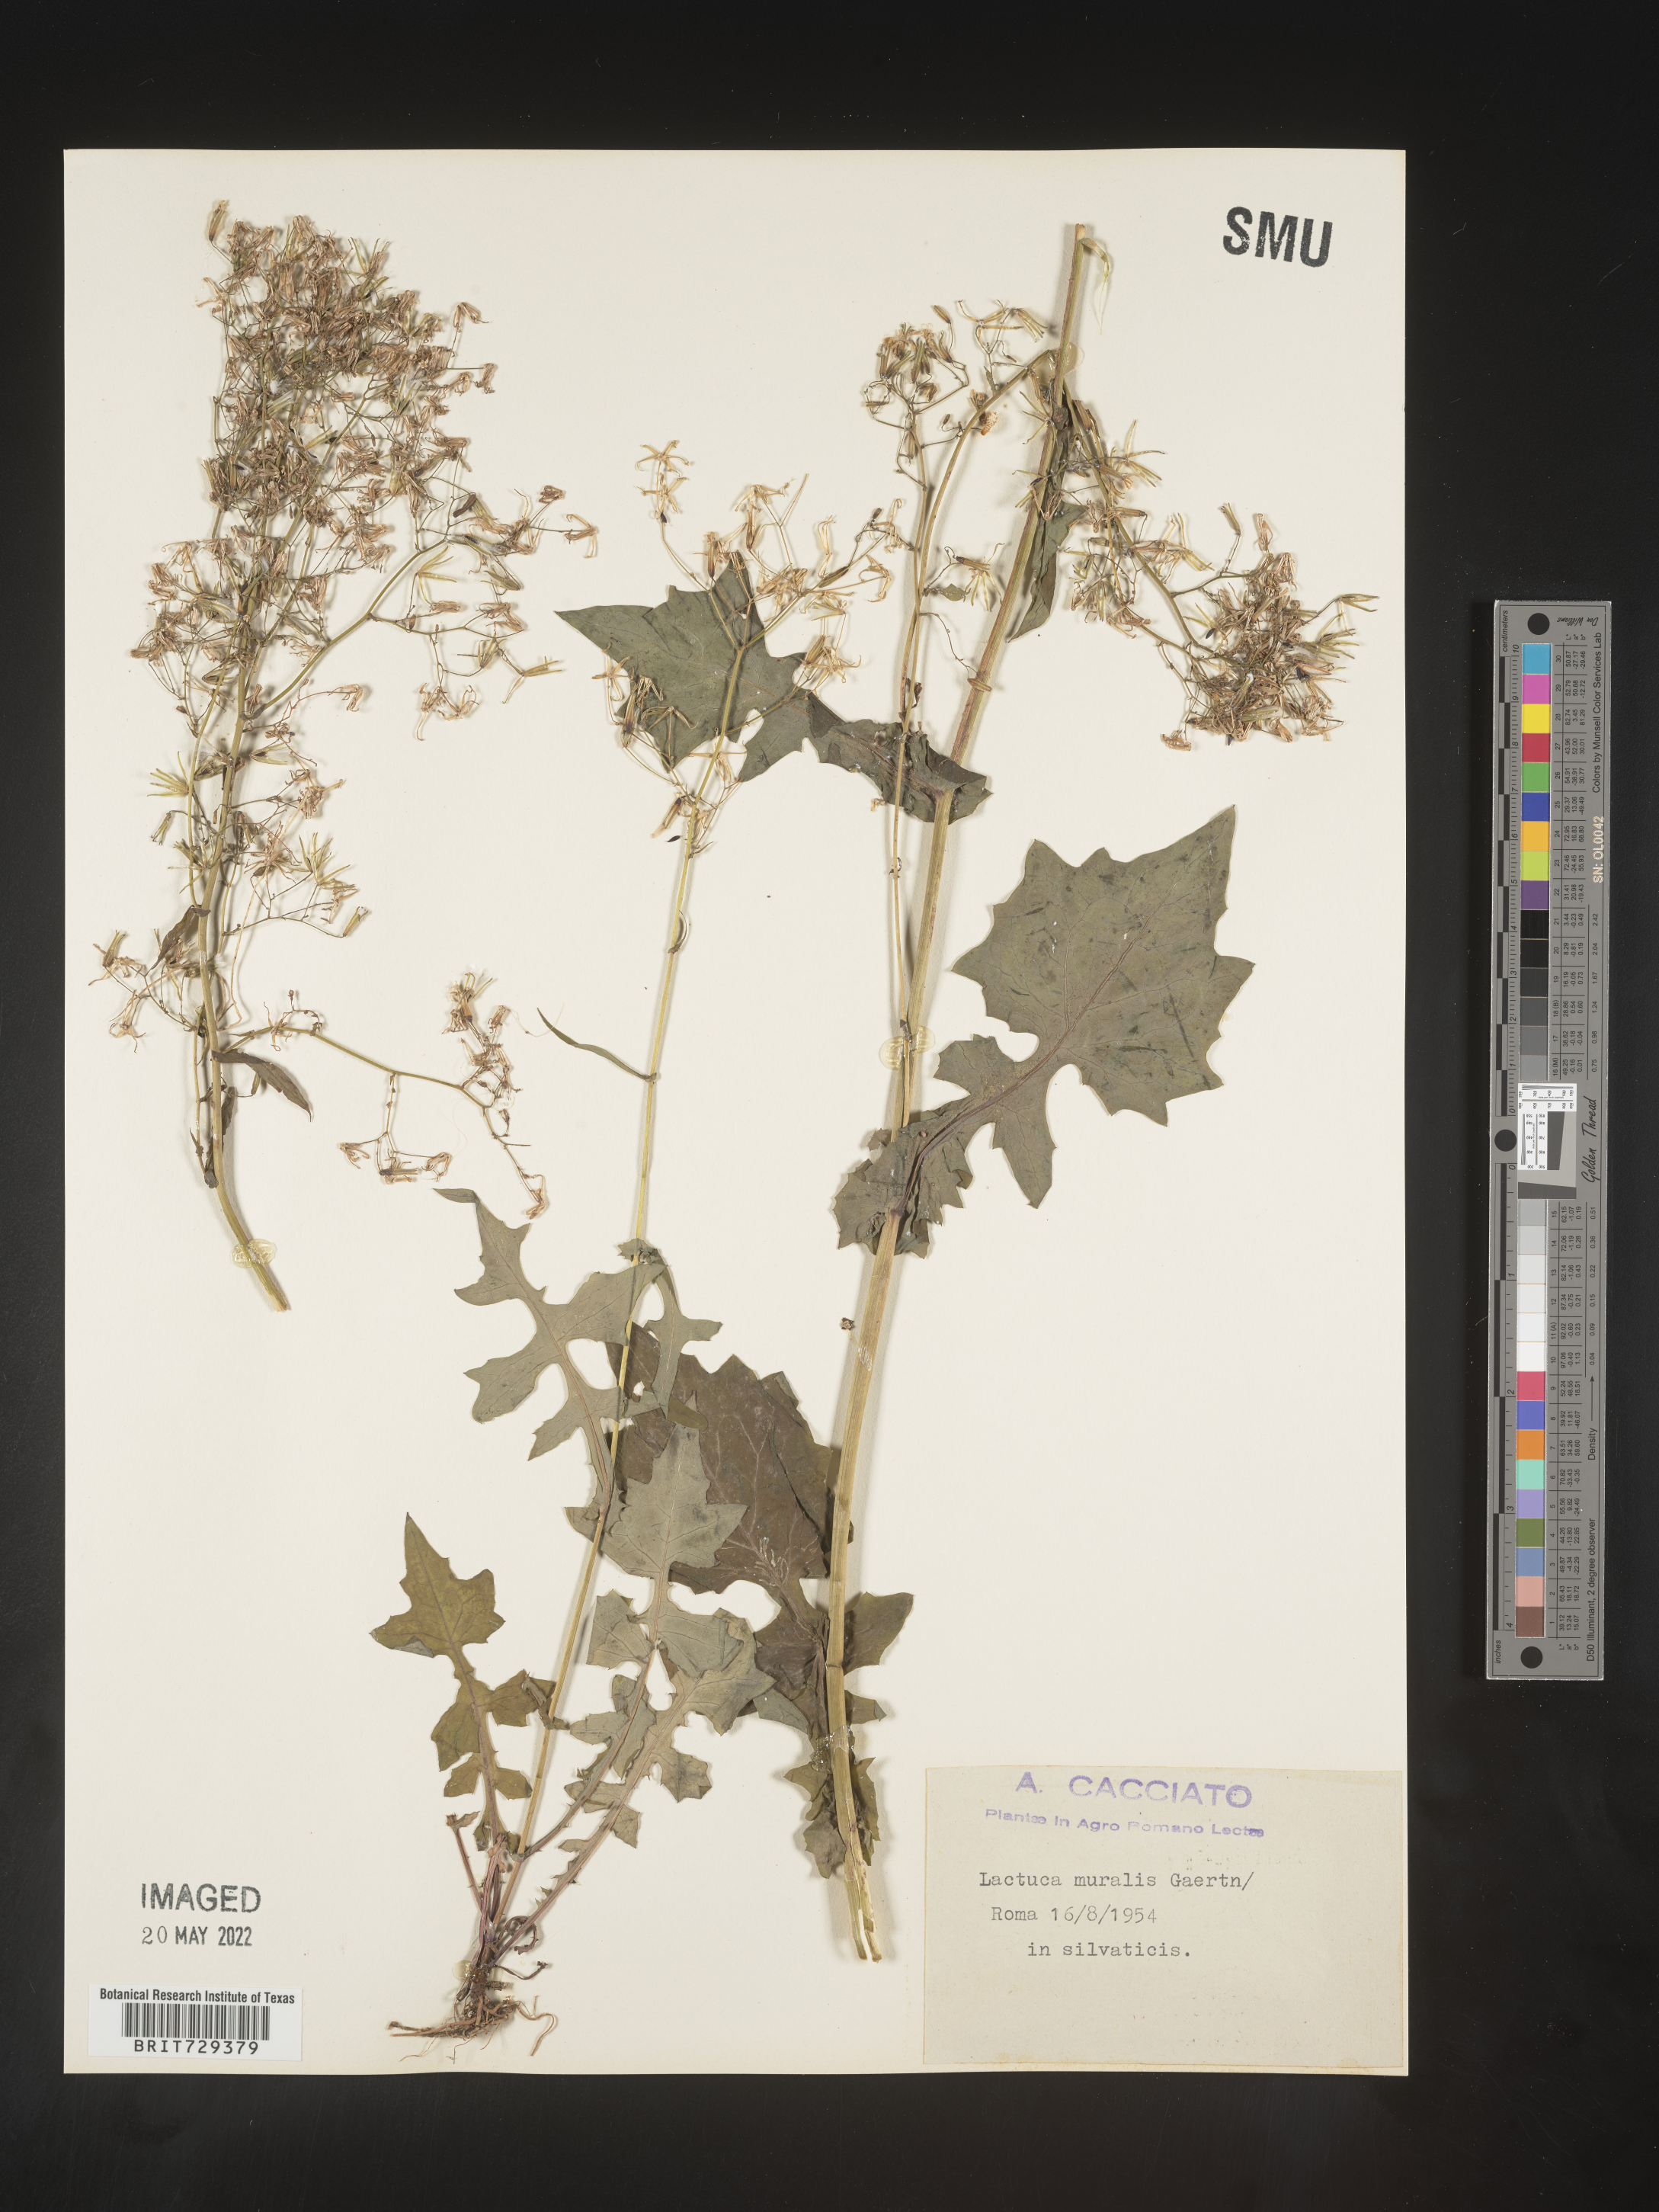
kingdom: Plantae
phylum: Tracheophyta
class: Magnoliopsida
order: Asterales
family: Asteraceae
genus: Lactuca
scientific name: Lactuca
